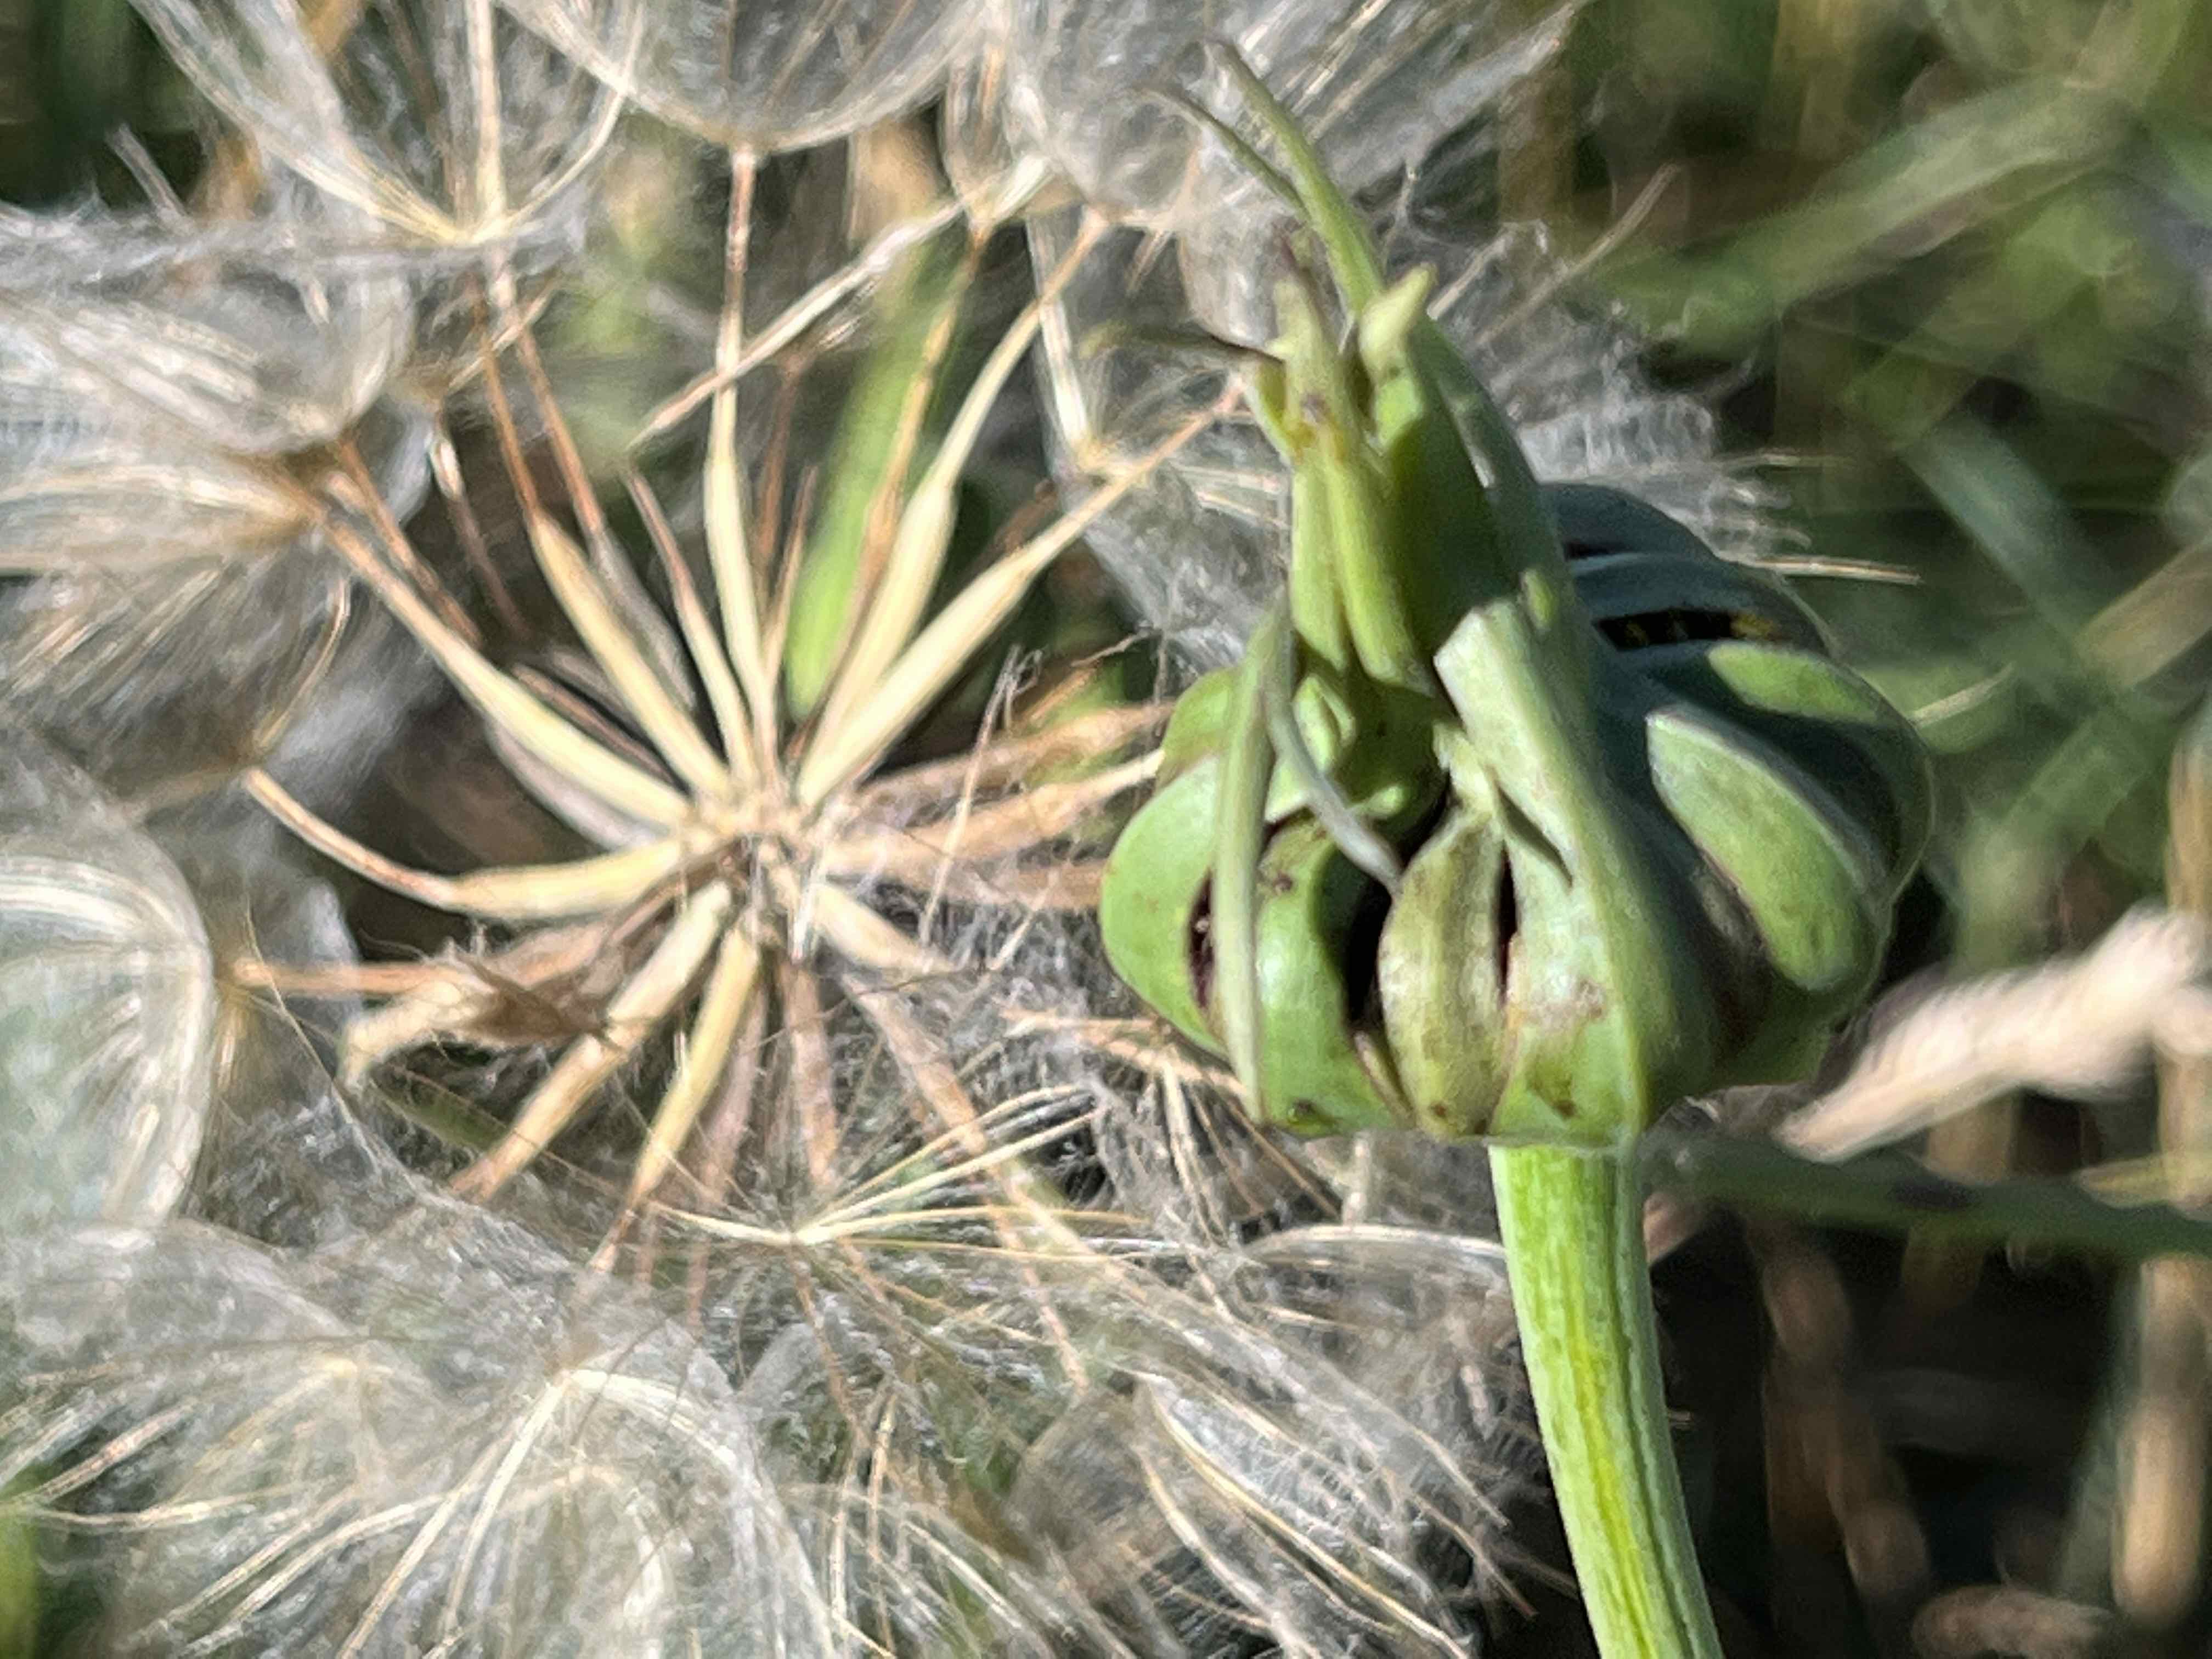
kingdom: Fungi
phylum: Basidiomycota
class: Microbotryomycetes
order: Microbotryales
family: Microbotryaceae
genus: Microbotryum
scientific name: Microbotryum tragopogonis-pratensis
